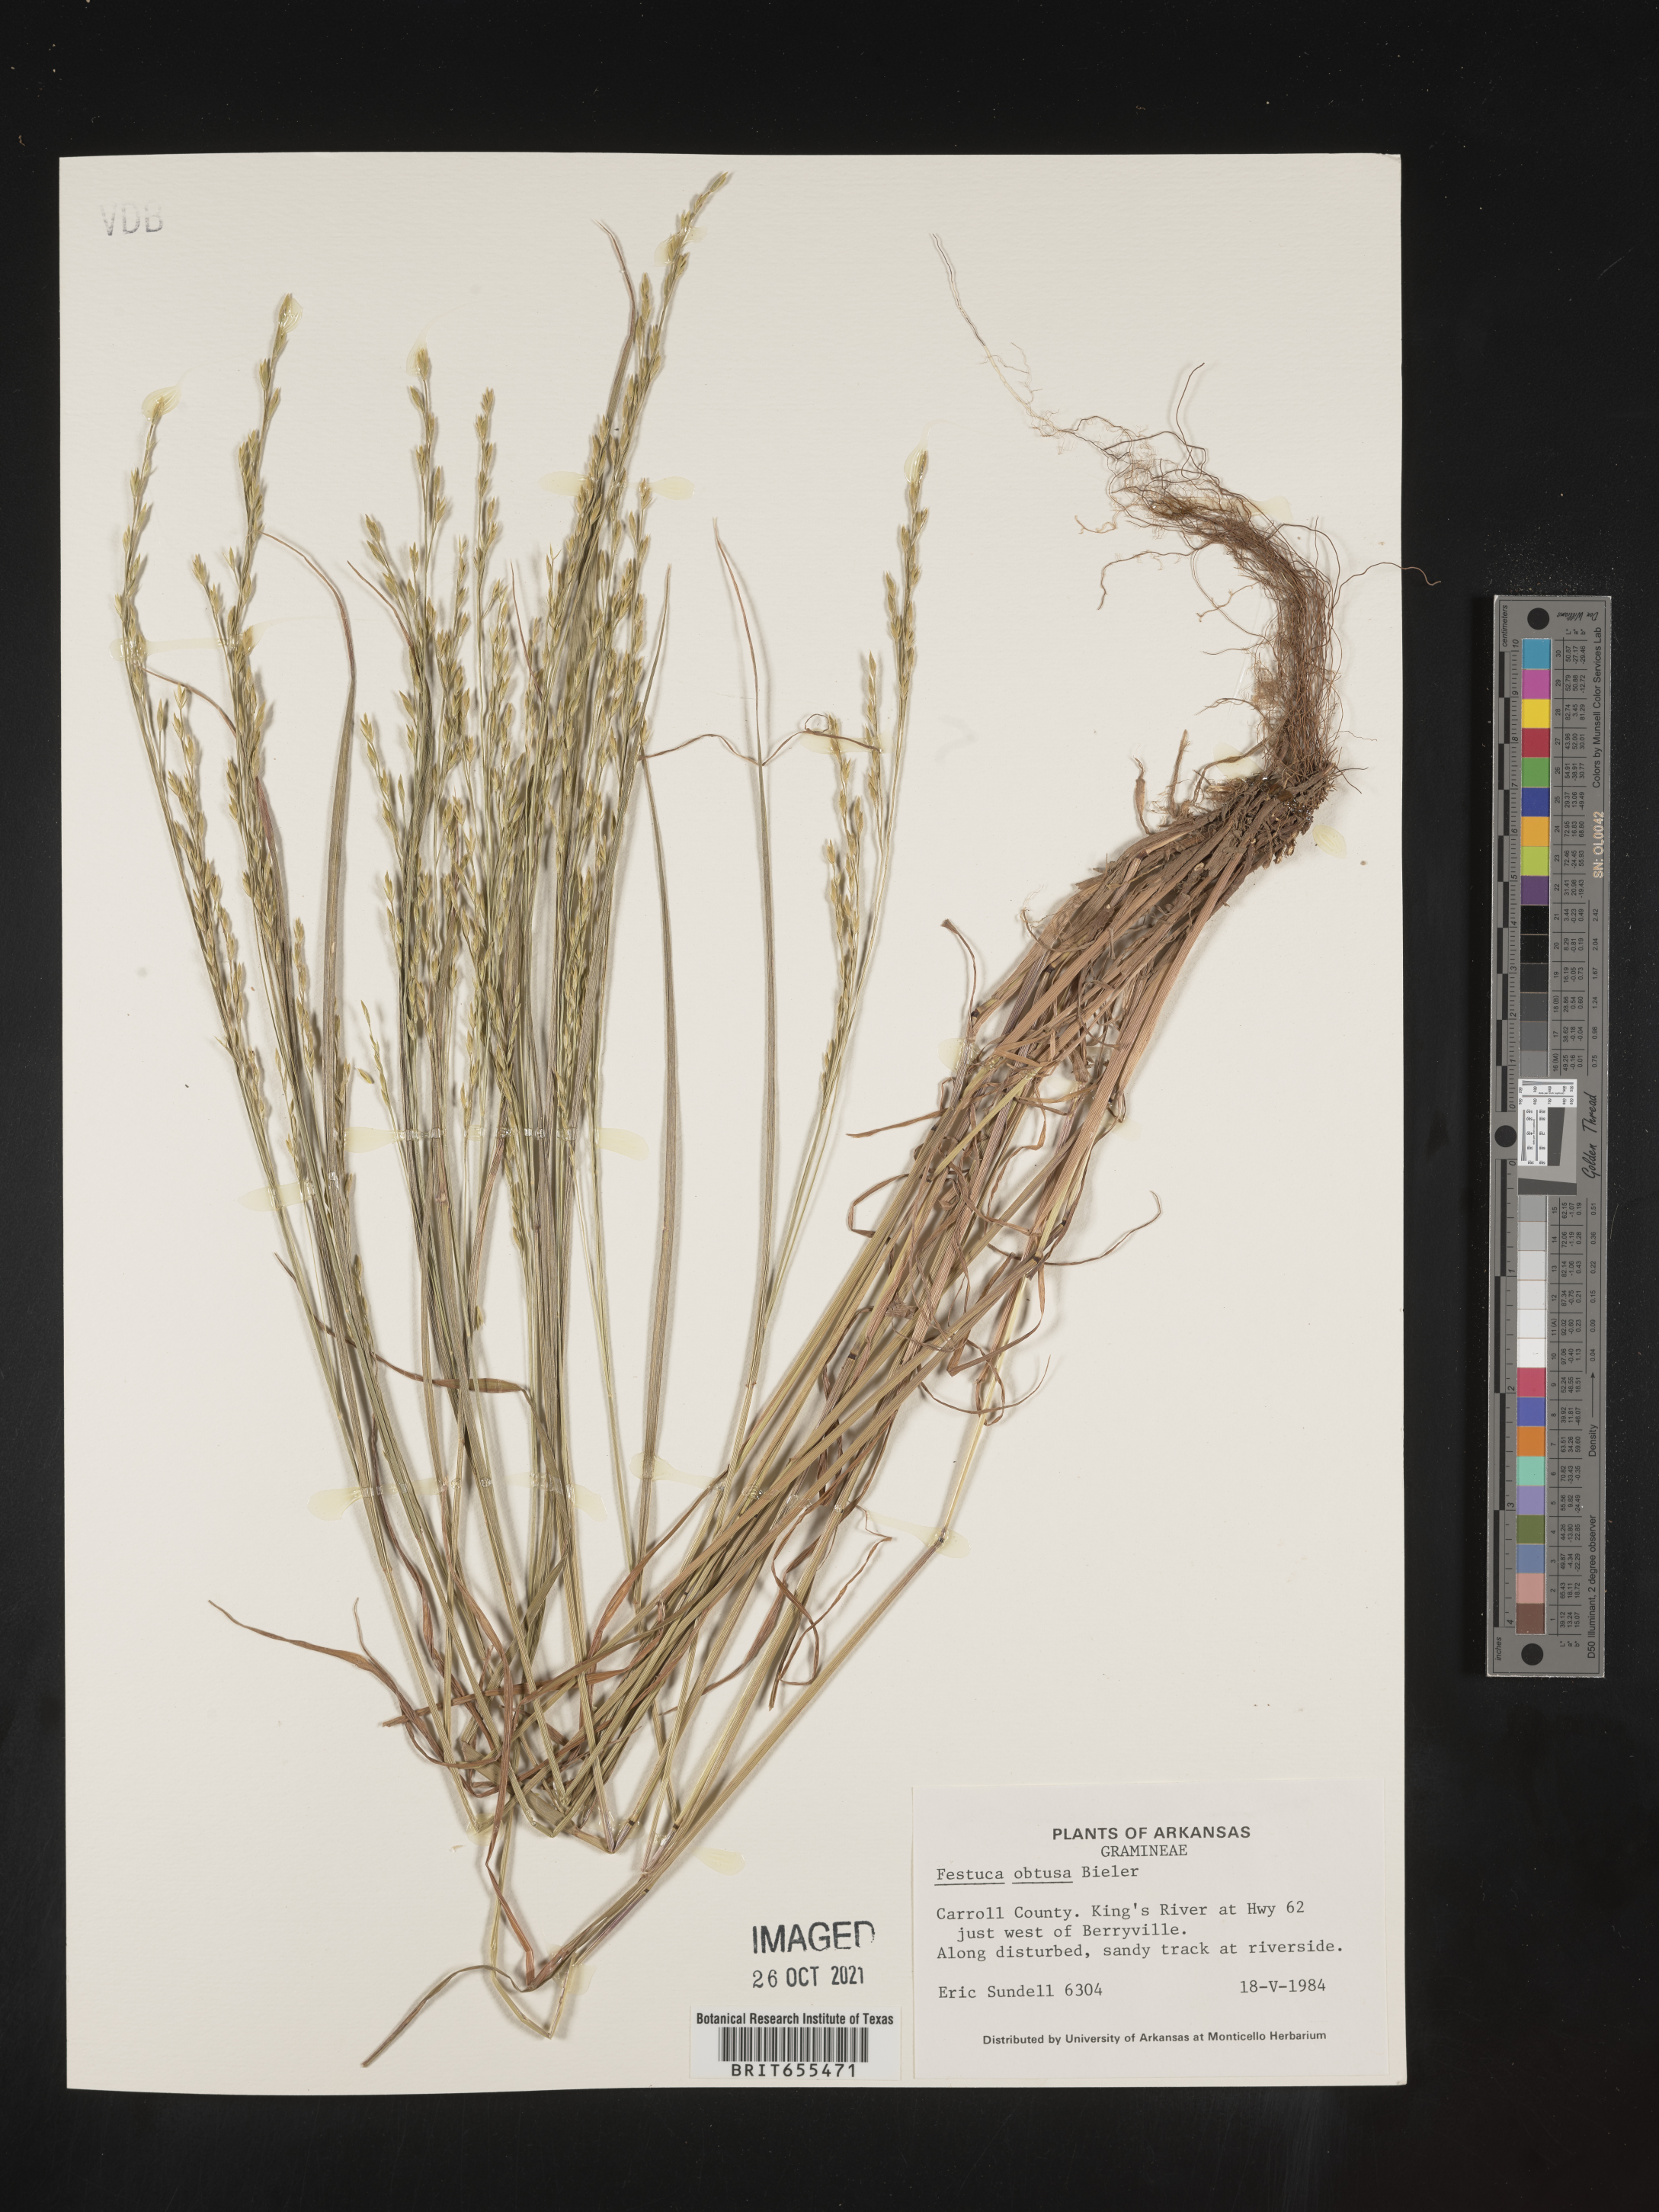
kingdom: Plantae
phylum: Tracheophyta
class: Liliopsida
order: Poales
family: Poaceae
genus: Festuca
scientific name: Festuca
